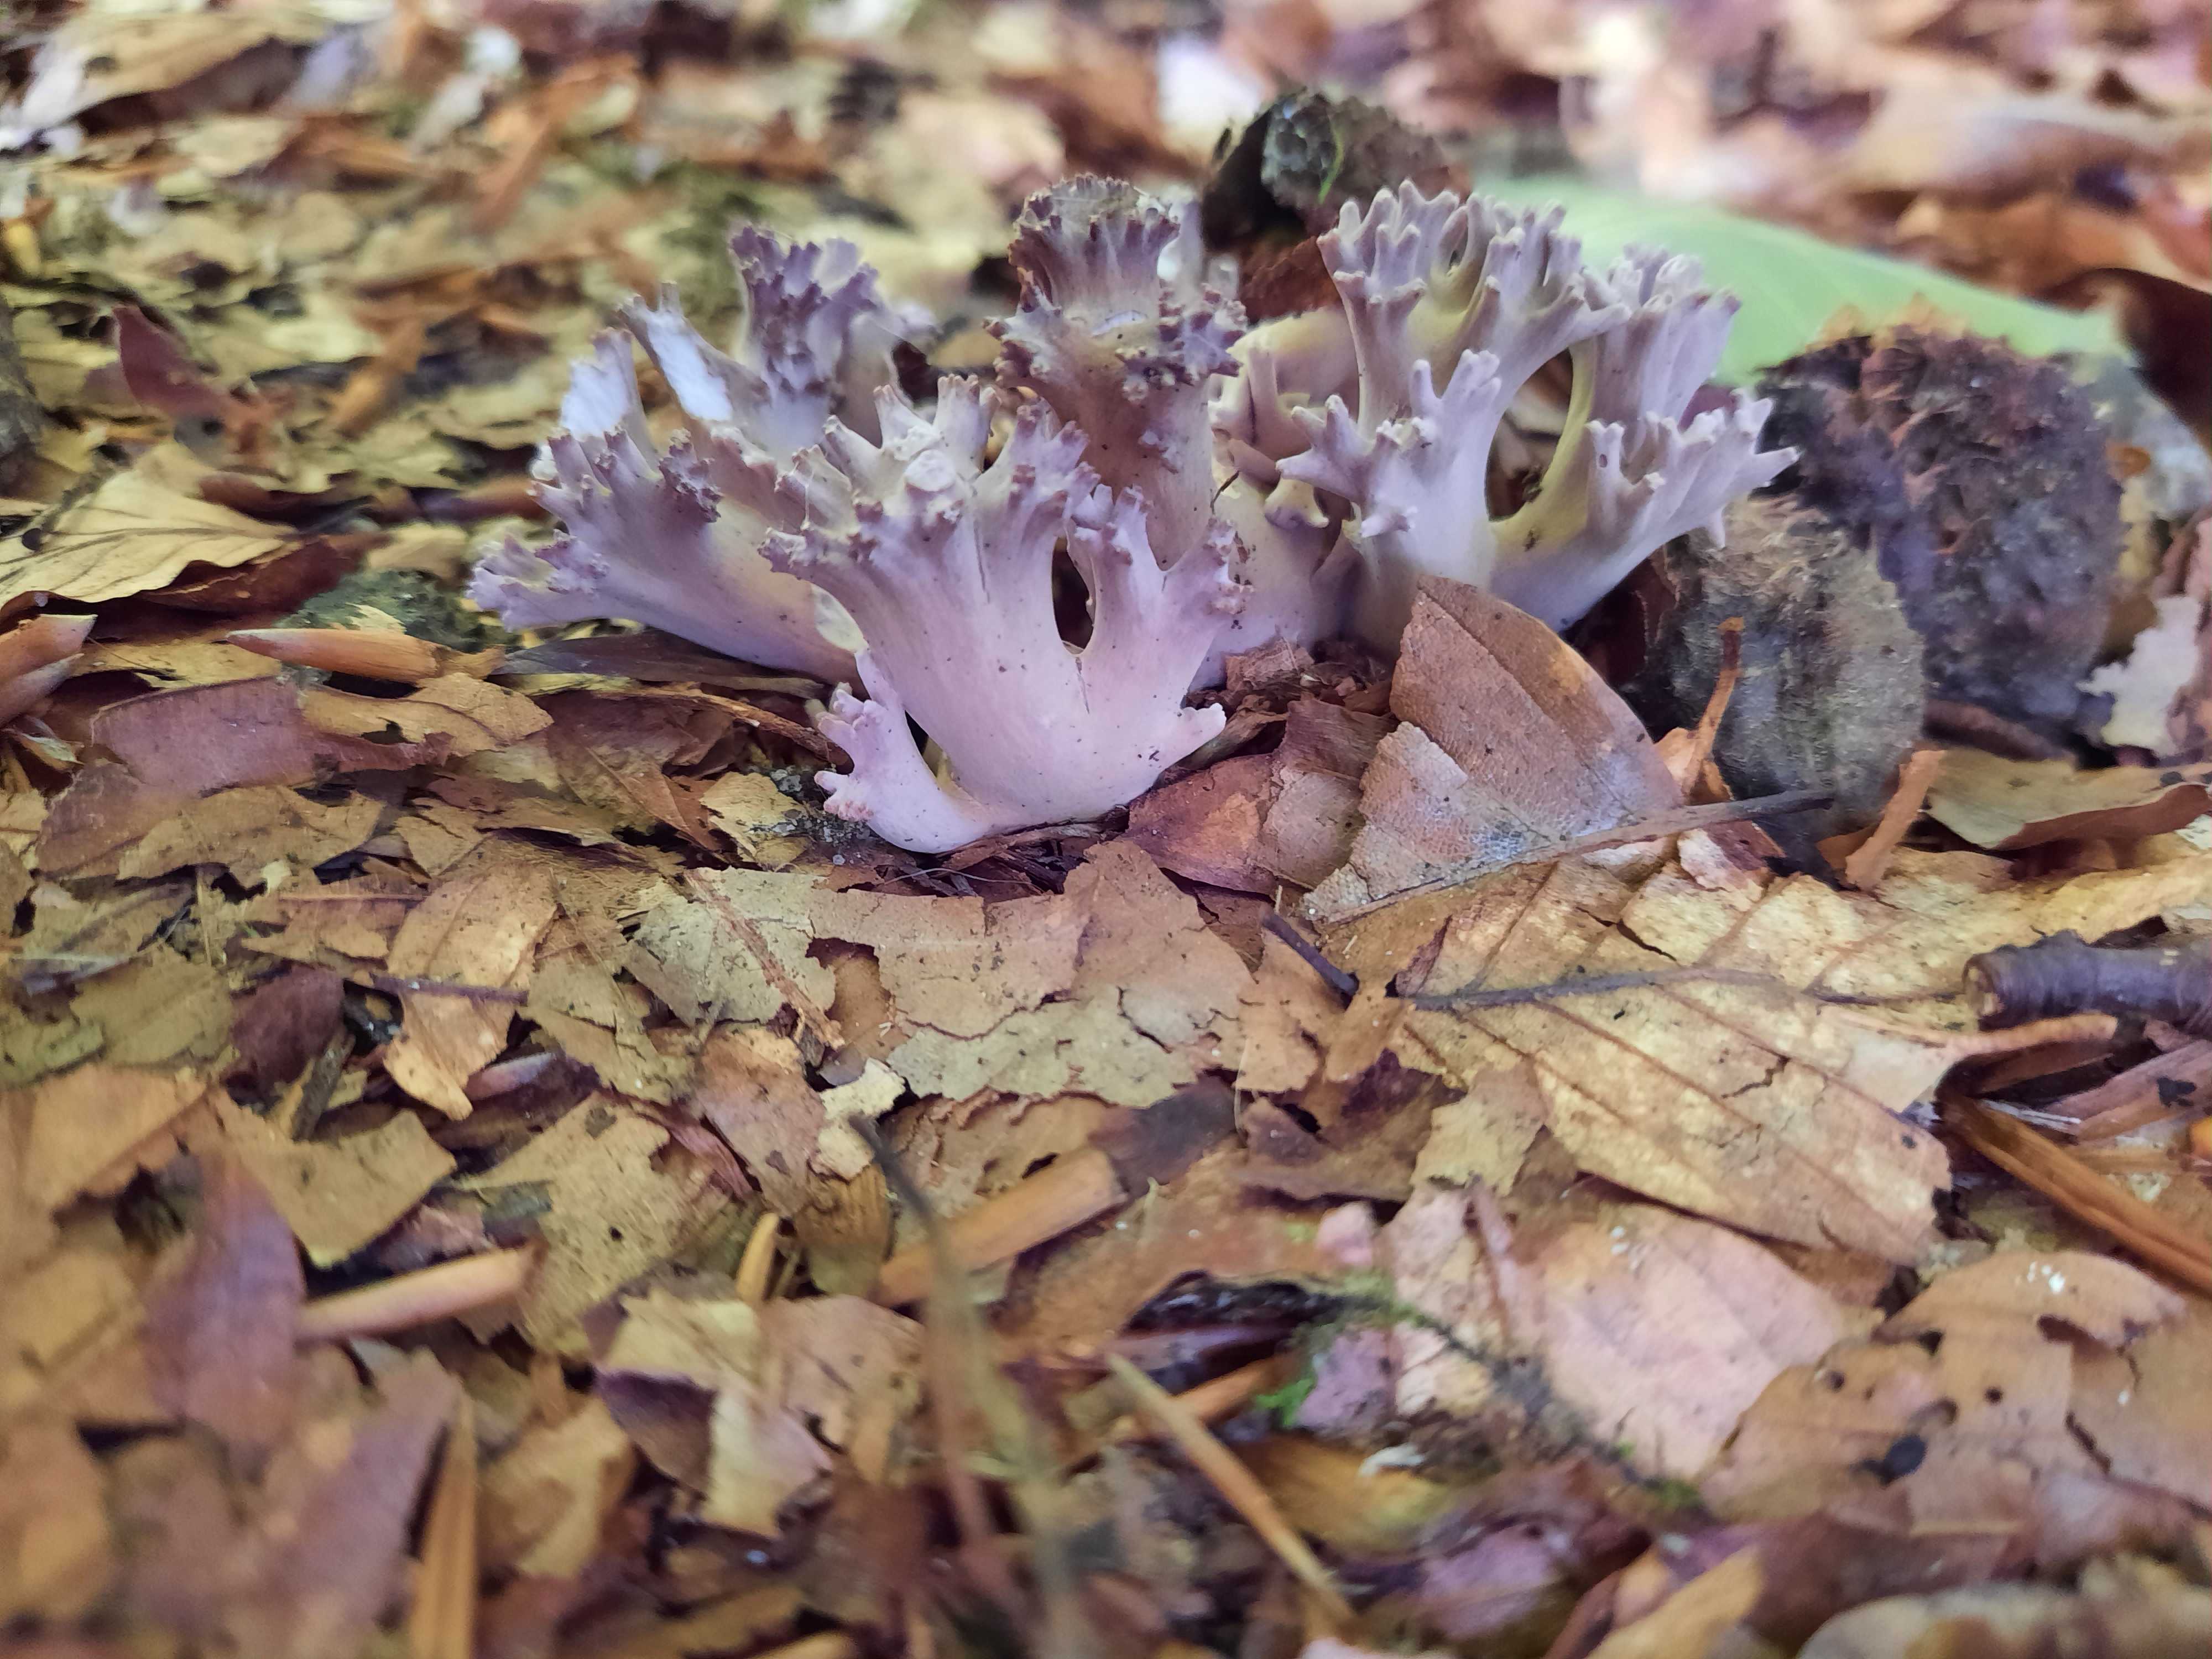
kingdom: Fungi
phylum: Basidiomycota
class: Agaricomycetes
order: Gomphales
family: Gomphaceae
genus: Ramaria
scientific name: Ramaria fumigata
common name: violet koralsvamp
